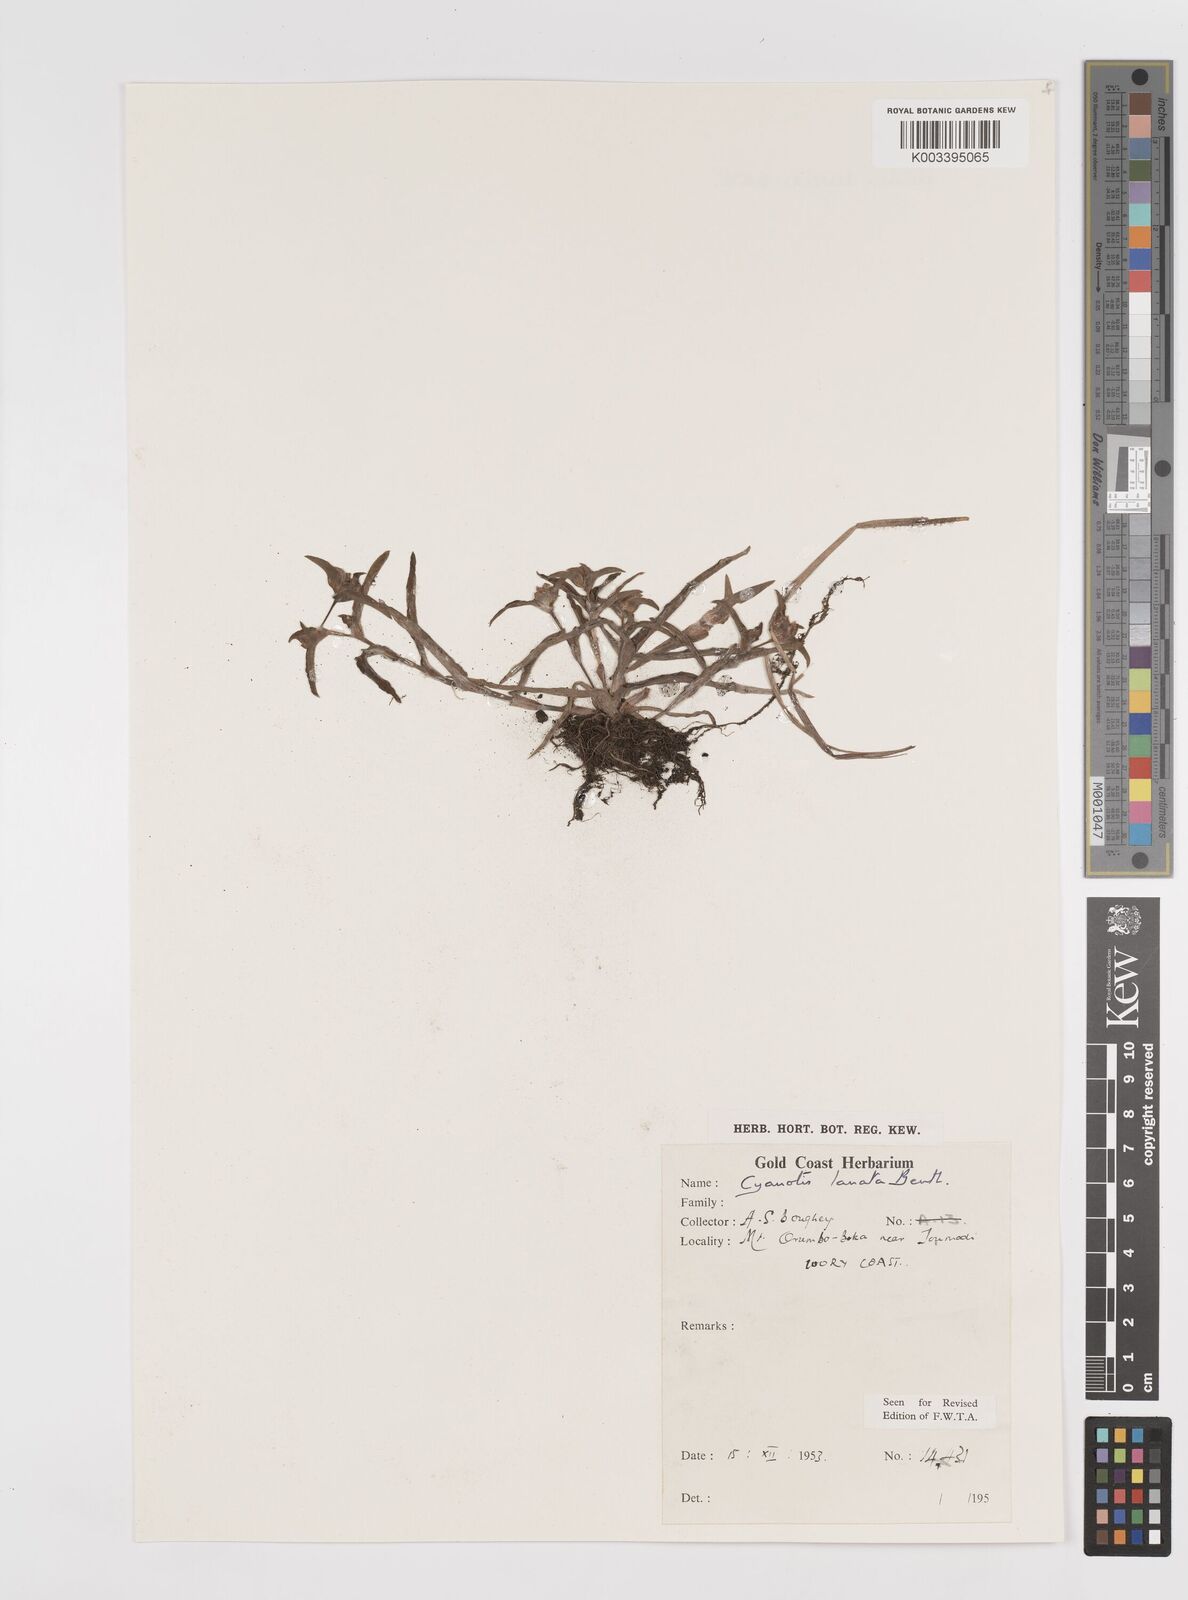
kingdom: Plantae
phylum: Tracheophyta
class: Liliopsida
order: Commelinales
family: Commelinaceae
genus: Cyanotis
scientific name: Cyanotis lanata
